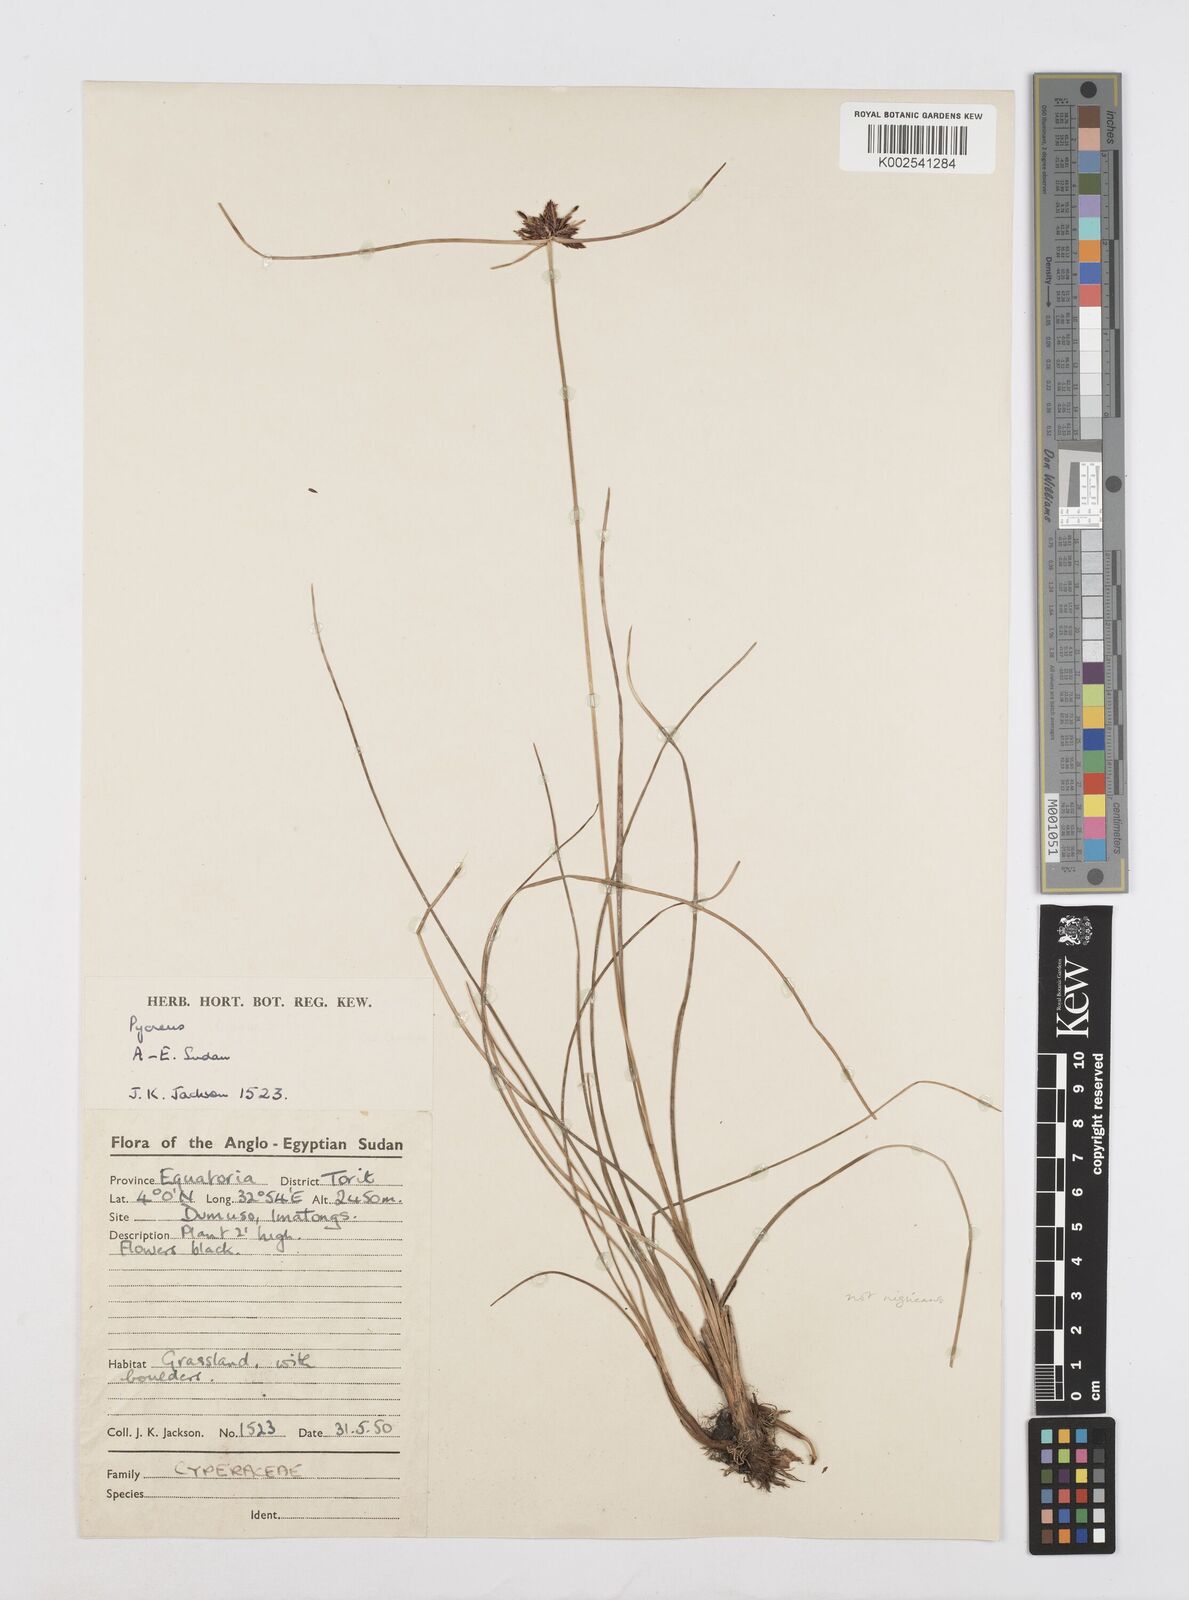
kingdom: Plantae
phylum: Tracheophyta
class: Liliopsida
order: Poales
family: Cyperaceae
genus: Cyperus
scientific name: Cyperus
